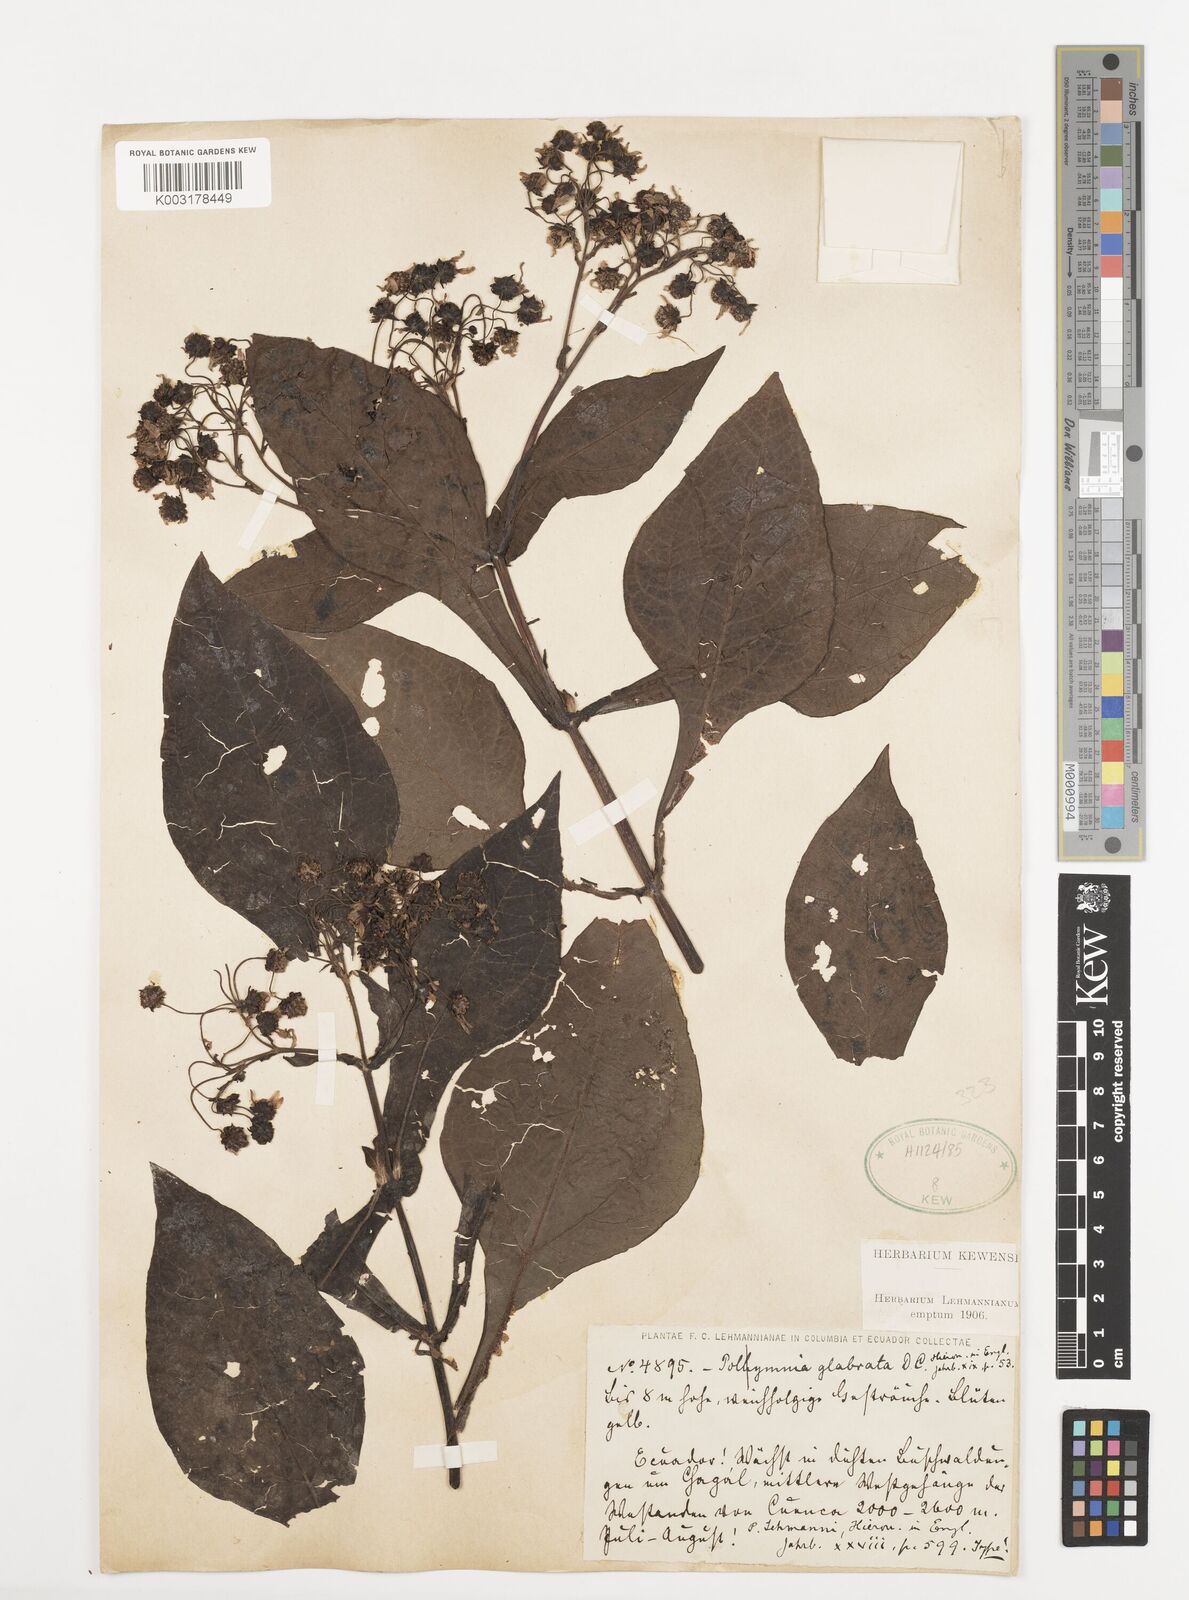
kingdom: Plantae
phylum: Tracheophyta
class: Magnoliopsida
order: Asterales
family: Asteraceae
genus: Smallanthus
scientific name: Smallanthus glabratus
